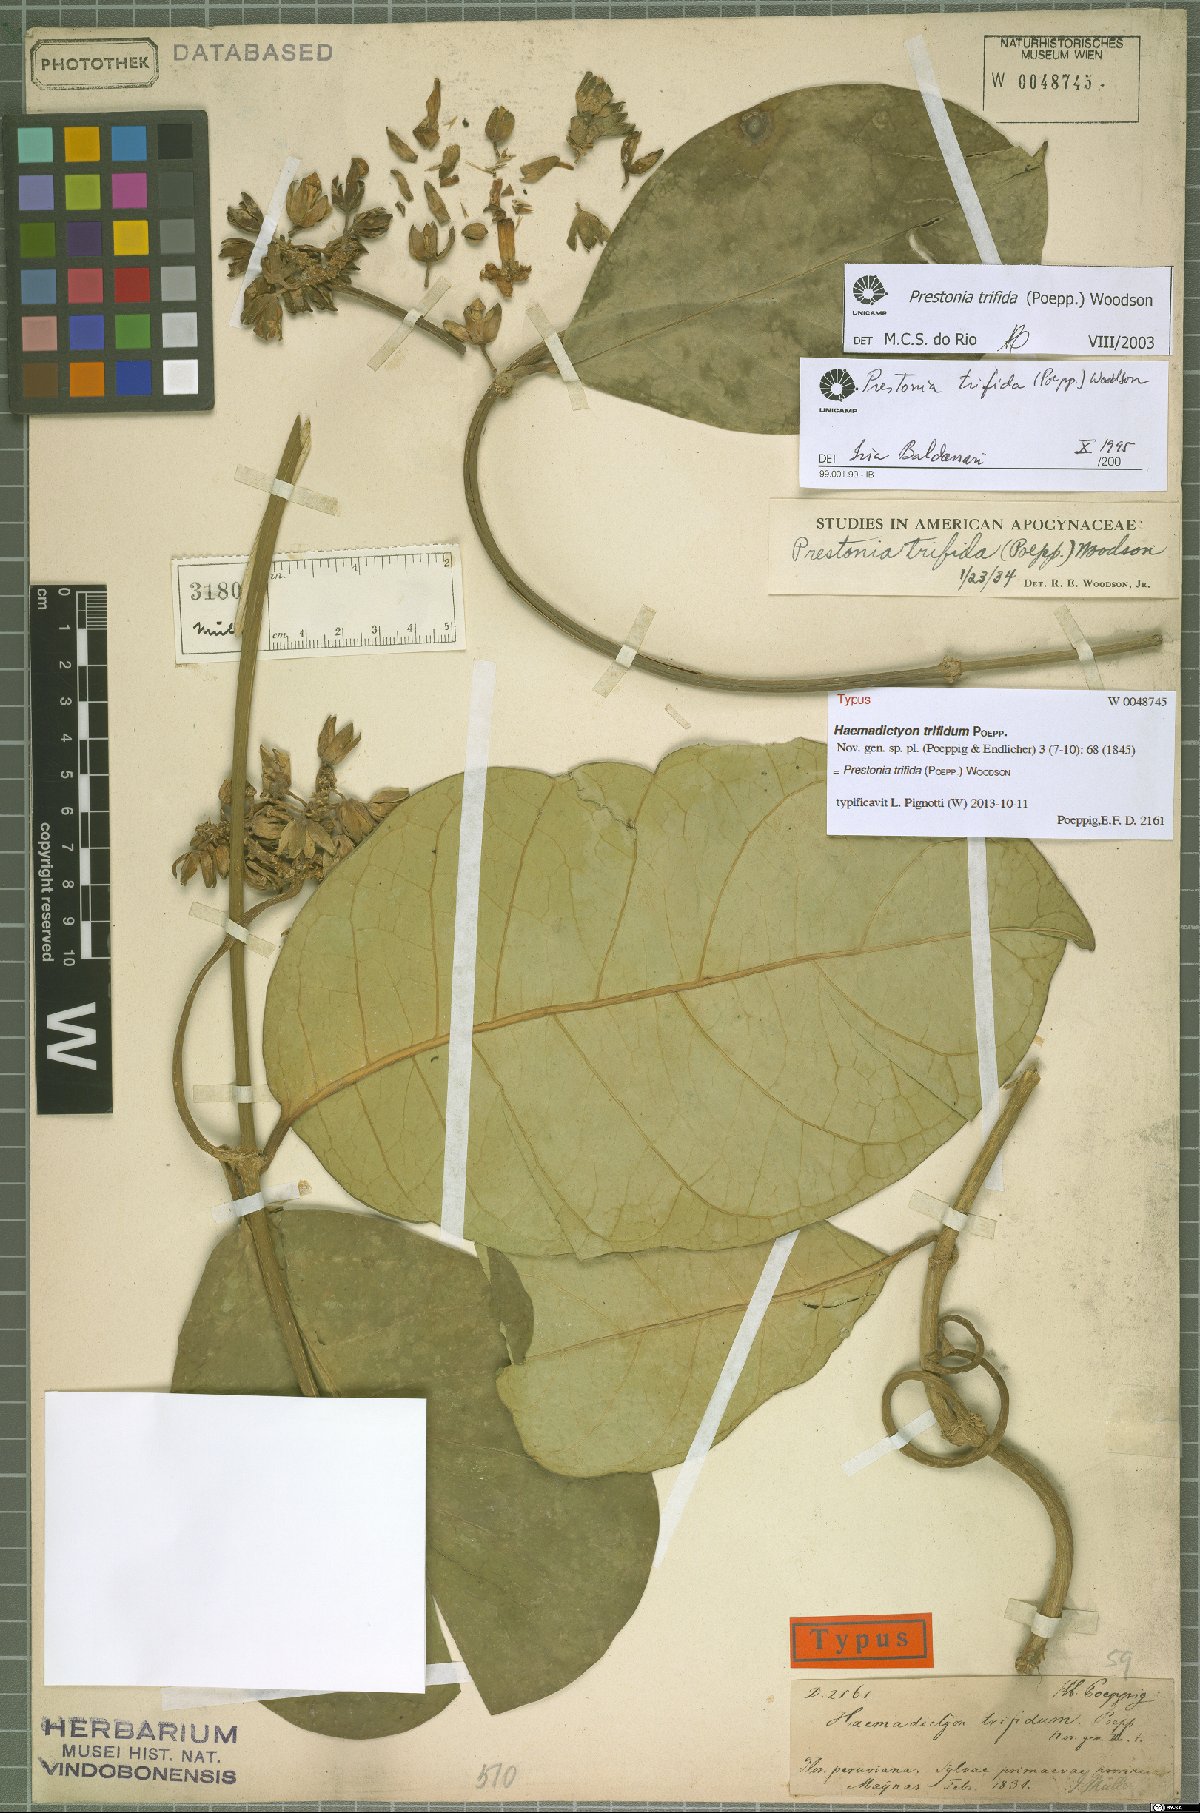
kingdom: Plantae
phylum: Tracheophyta
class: Magnoliopsida
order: Gentianales
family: Apocynaceae
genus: Prestonia
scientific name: Prestonia trifida
